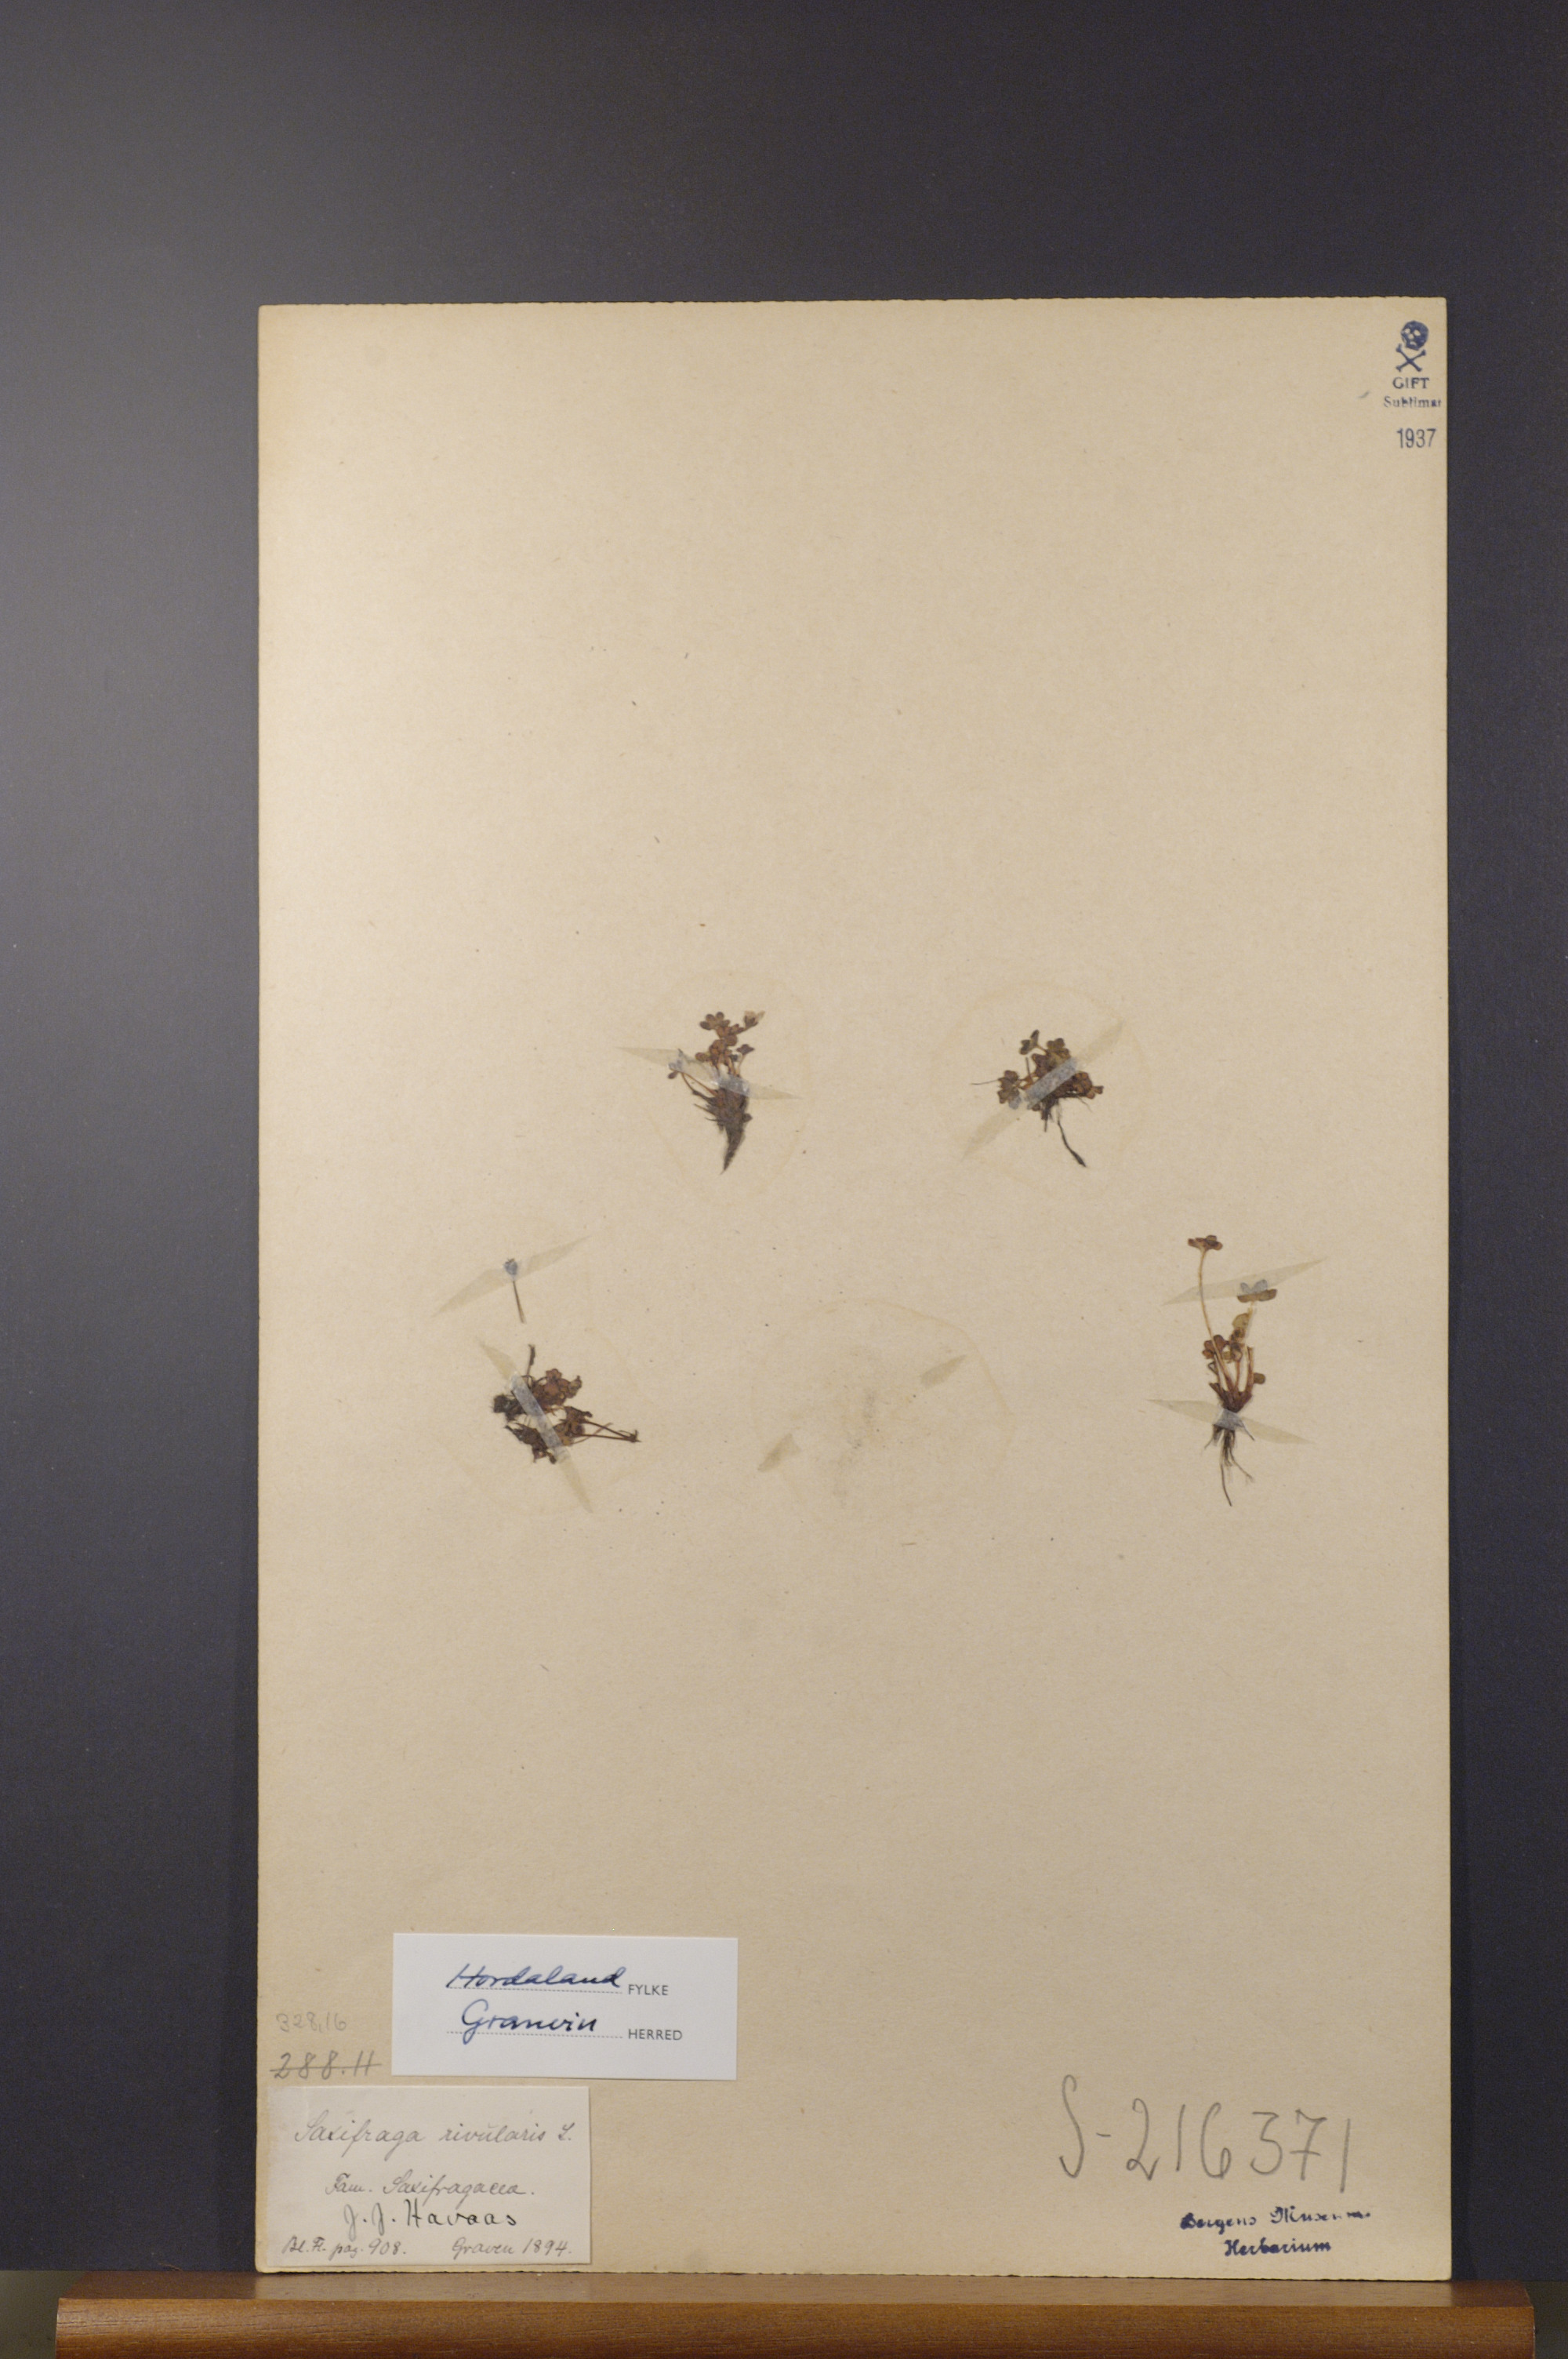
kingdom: Plantae
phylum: Tracheophyta
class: Magnoliopsida
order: Saxifragales
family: Saxifragaceae
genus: Saxifraga
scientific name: Saxifraga rivularis
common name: Highland saxifrage
